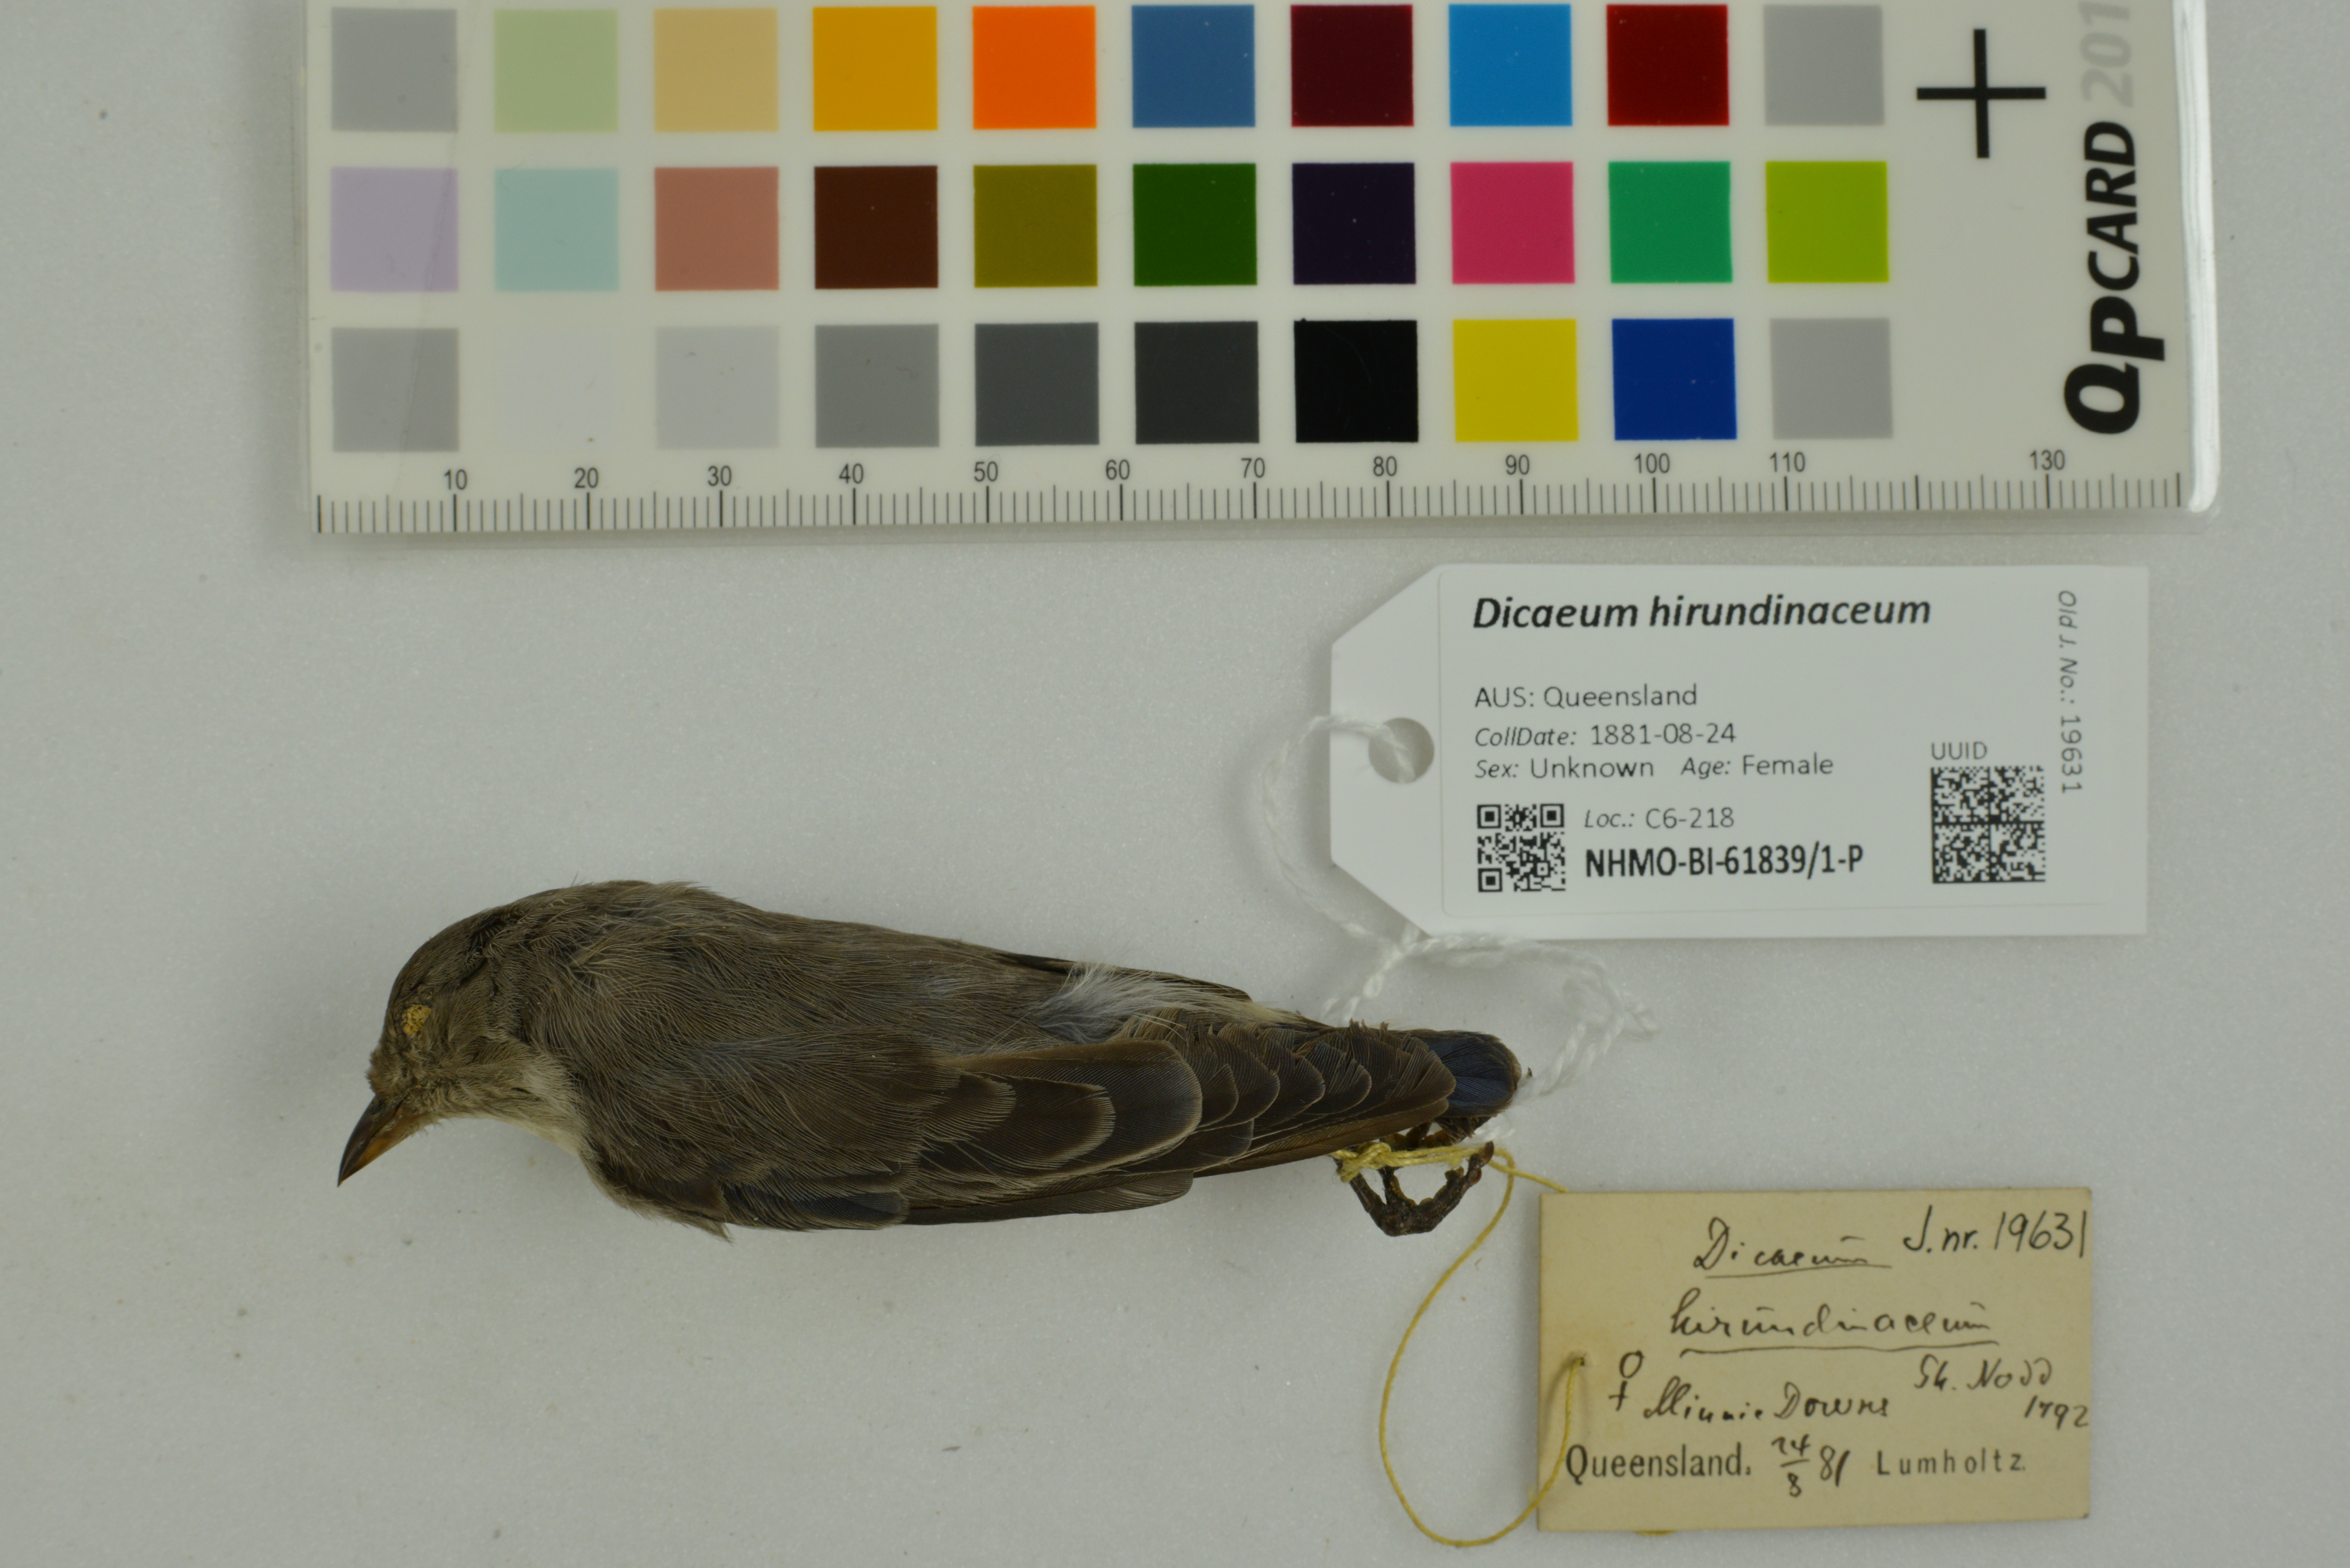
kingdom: Animalia
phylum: Chordata
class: Aves
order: Passeriformes
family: Dicaeidae
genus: Dicaeum
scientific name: Dicaeum hirundinaceum
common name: Mistletoebird
